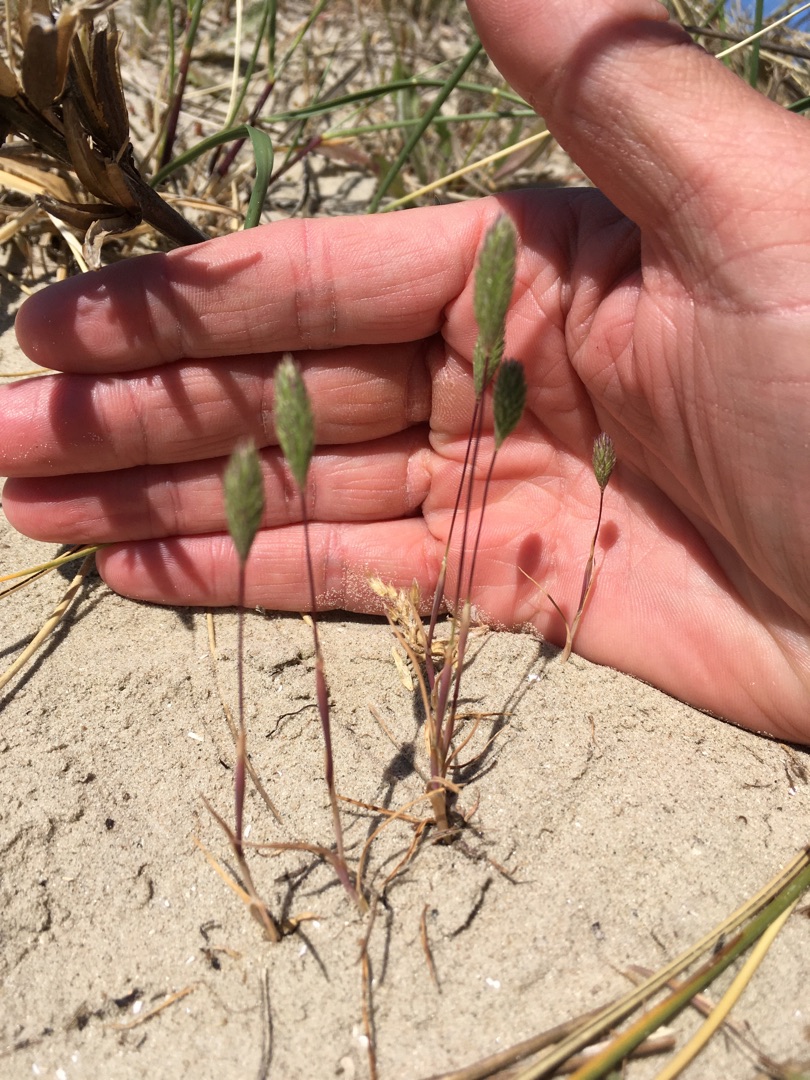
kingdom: Plantae
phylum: Tracheophyta
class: Liliopsida
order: Poales
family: Poaceae
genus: Phleum
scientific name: Phleum arenarium
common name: Sand-rottehale
